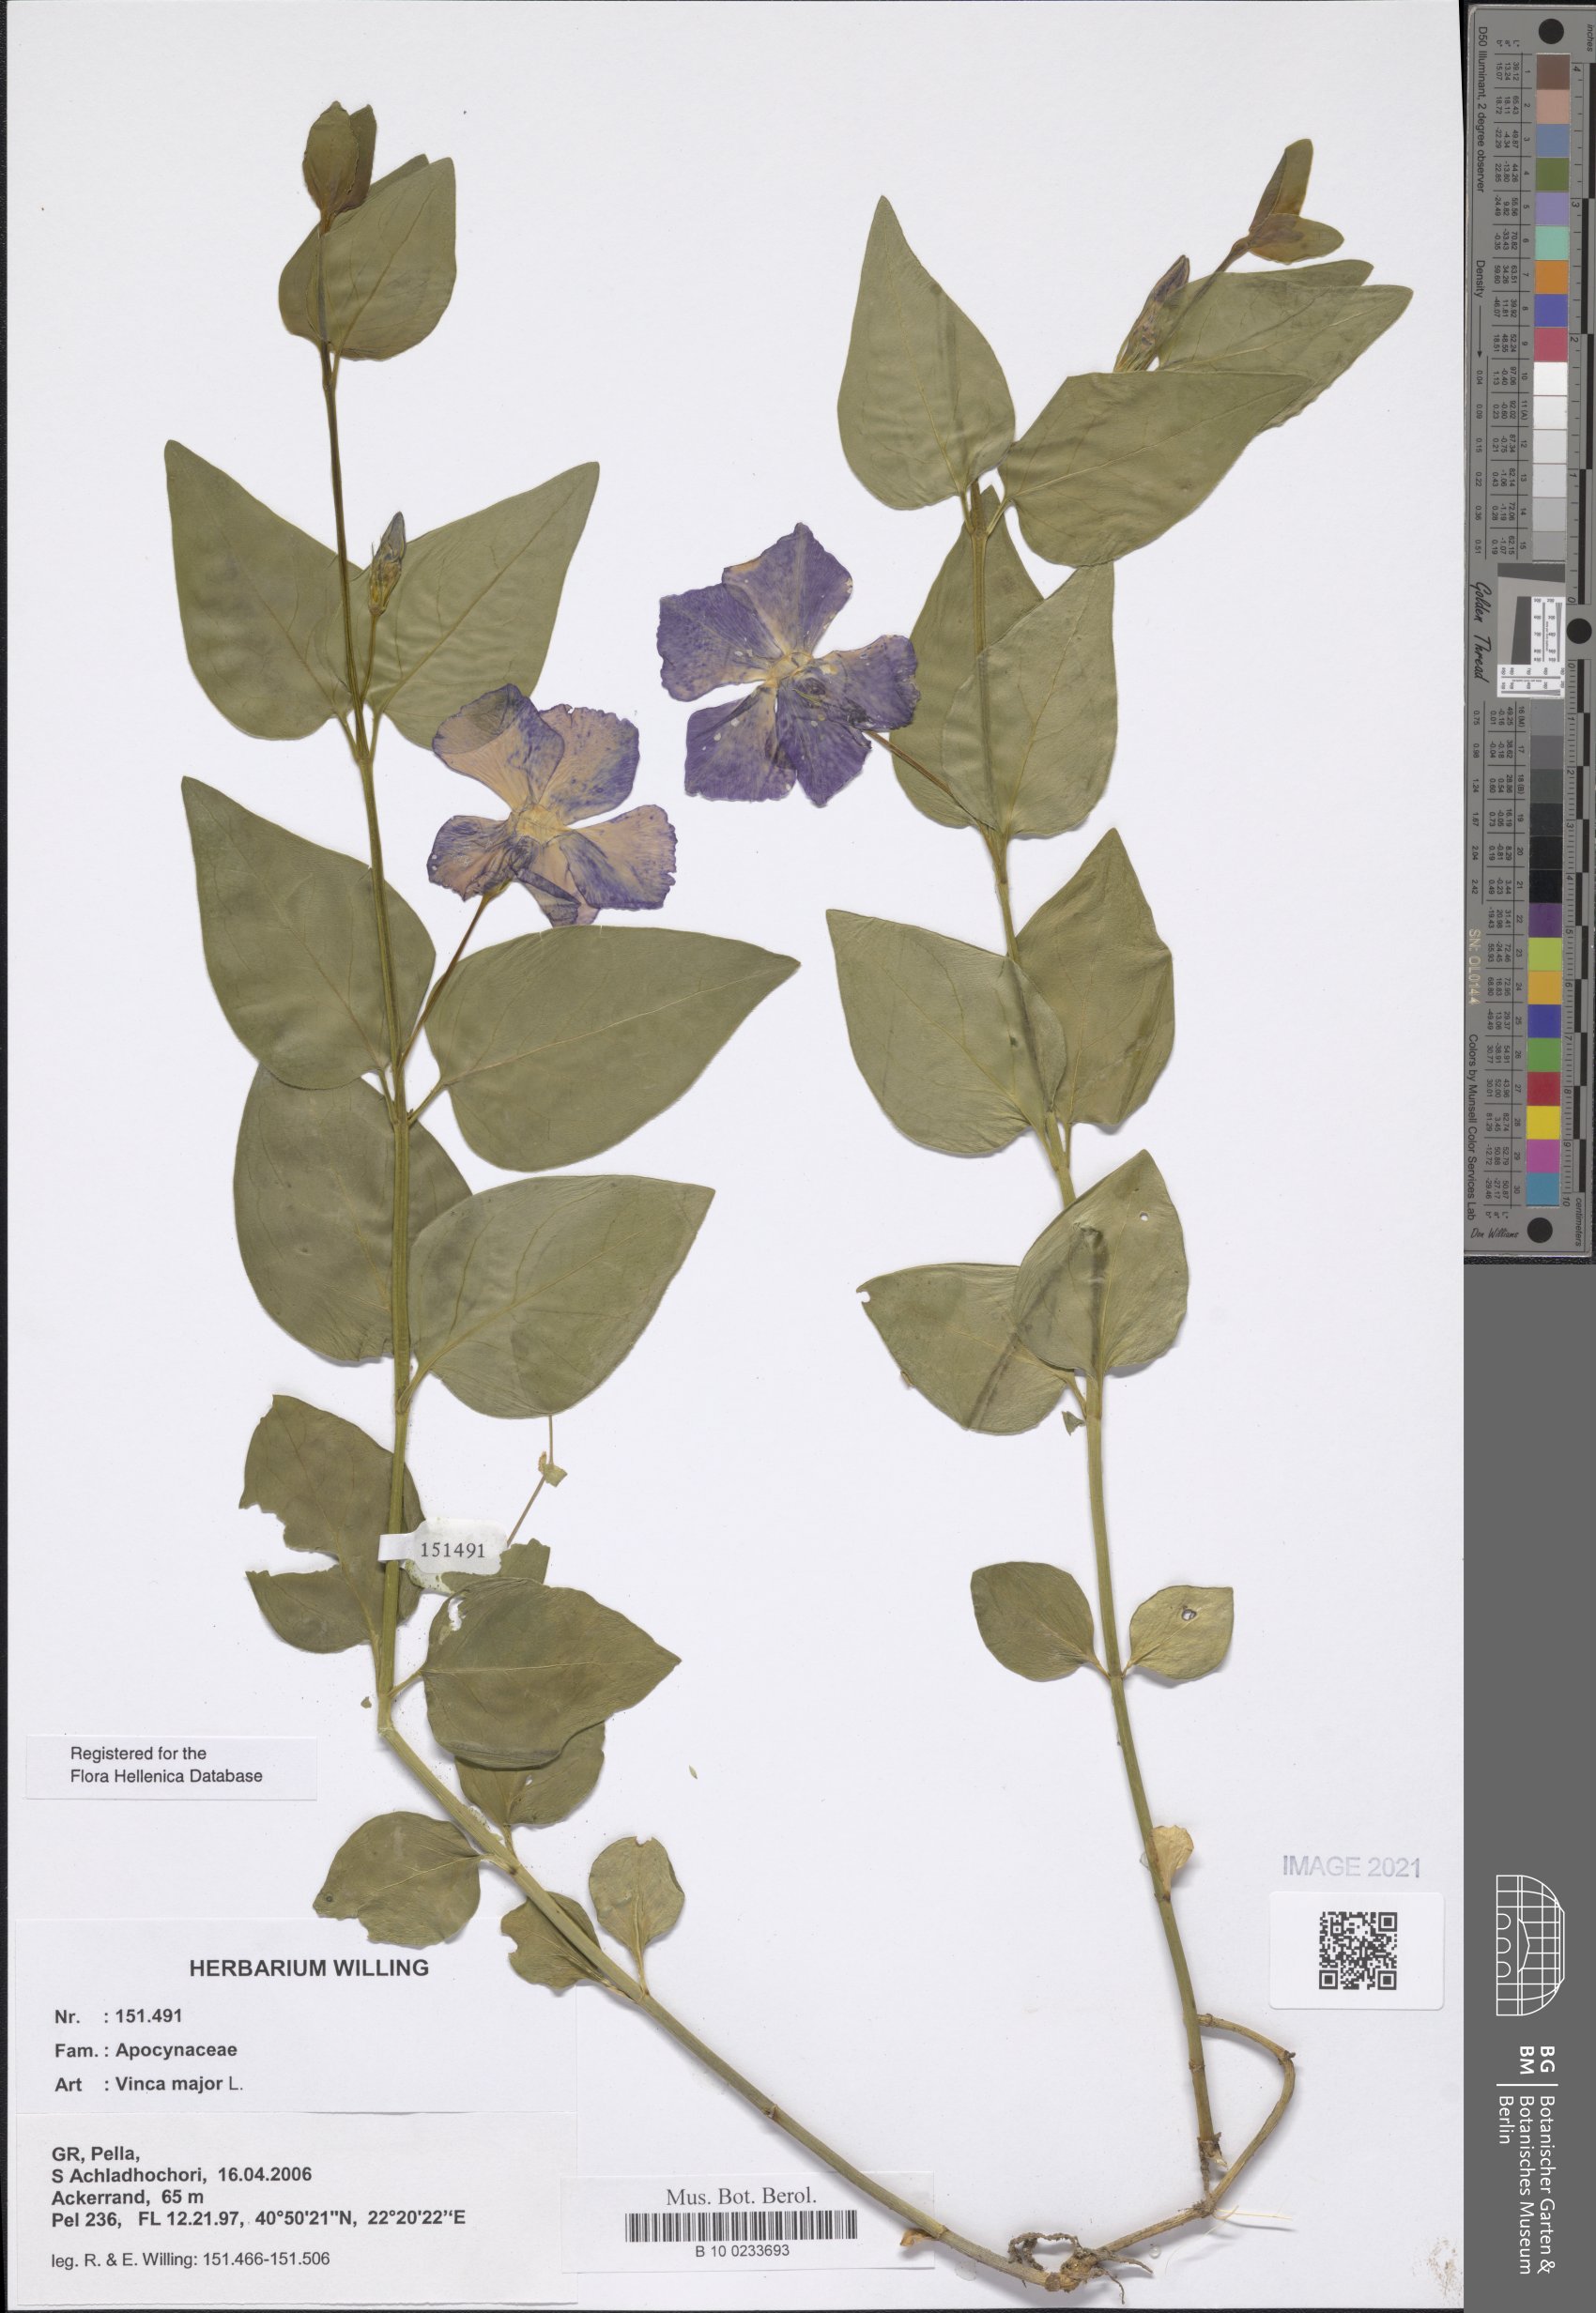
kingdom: Plantae
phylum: Tracheophyta
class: Magnoliopsida
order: Gentianales
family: Apocynaceae
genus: Vinca
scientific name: Vinca major
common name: Greater periwinkle
